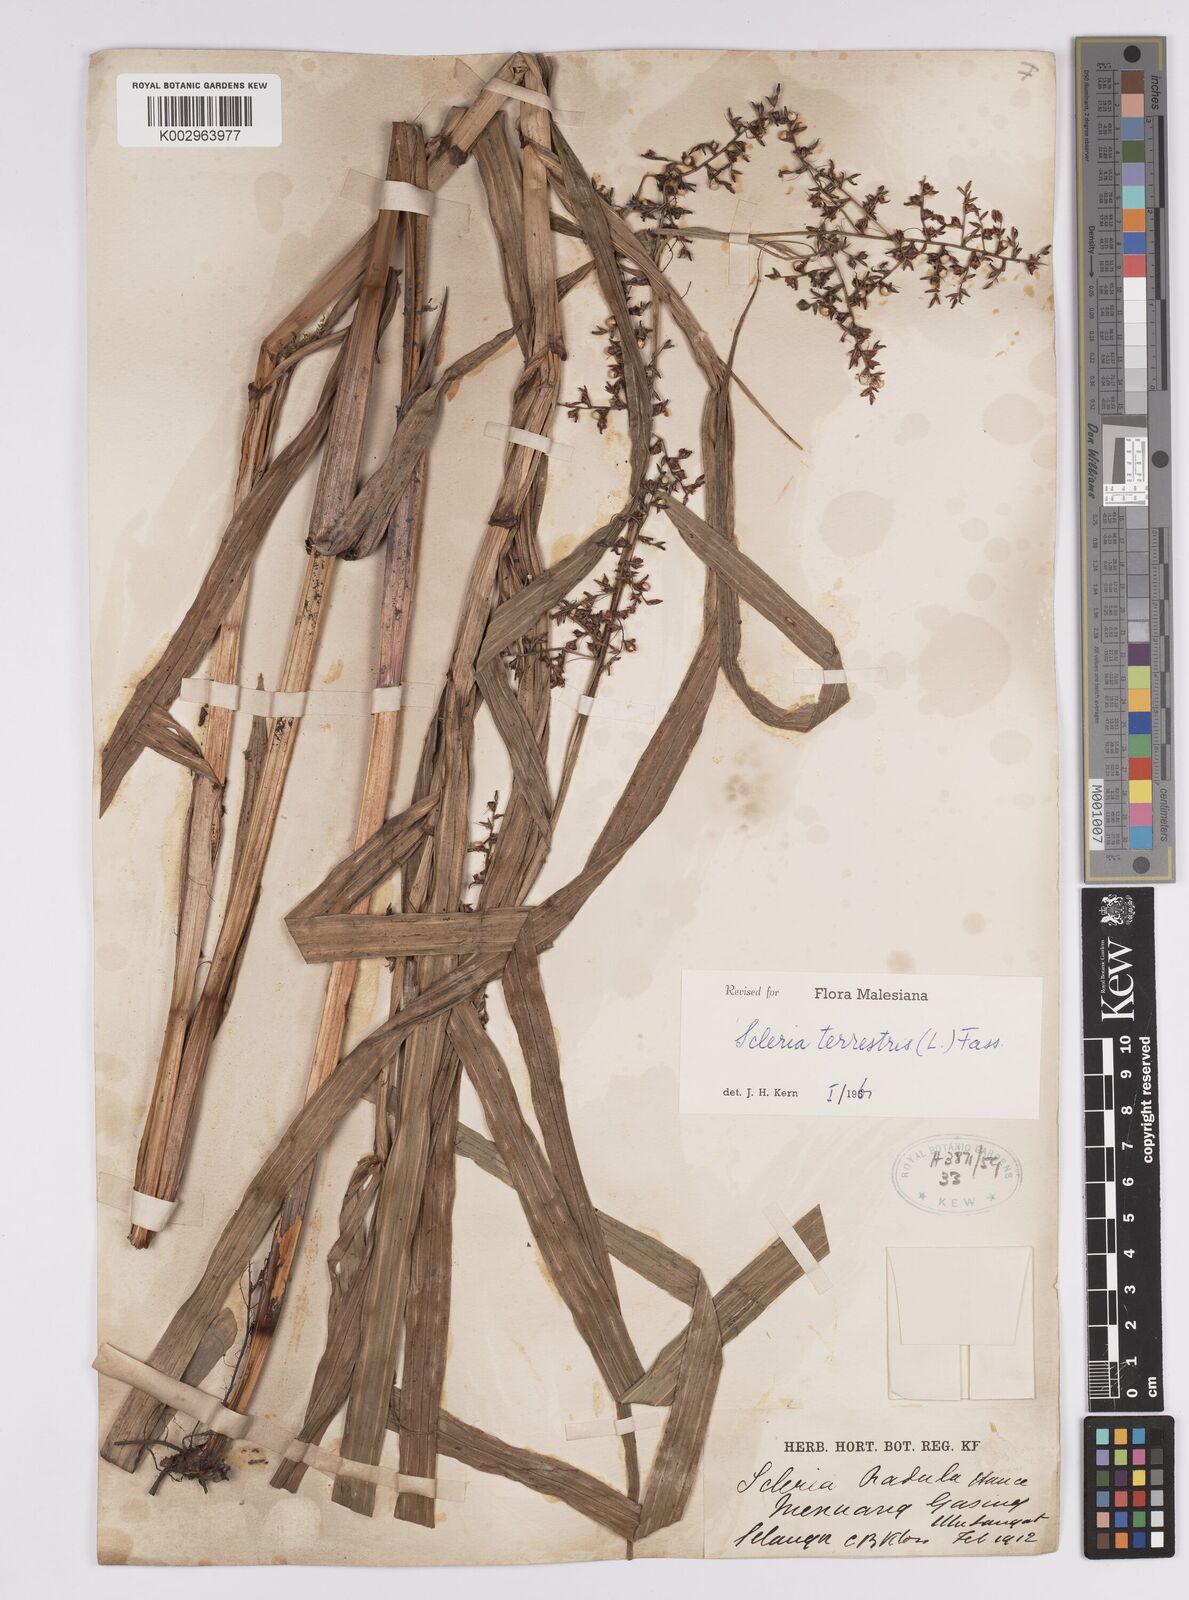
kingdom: Plantae
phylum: Tracheophyta
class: Liliopsida
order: Poales
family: Cyperaceae
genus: Scleria
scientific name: Scleria terrestris
